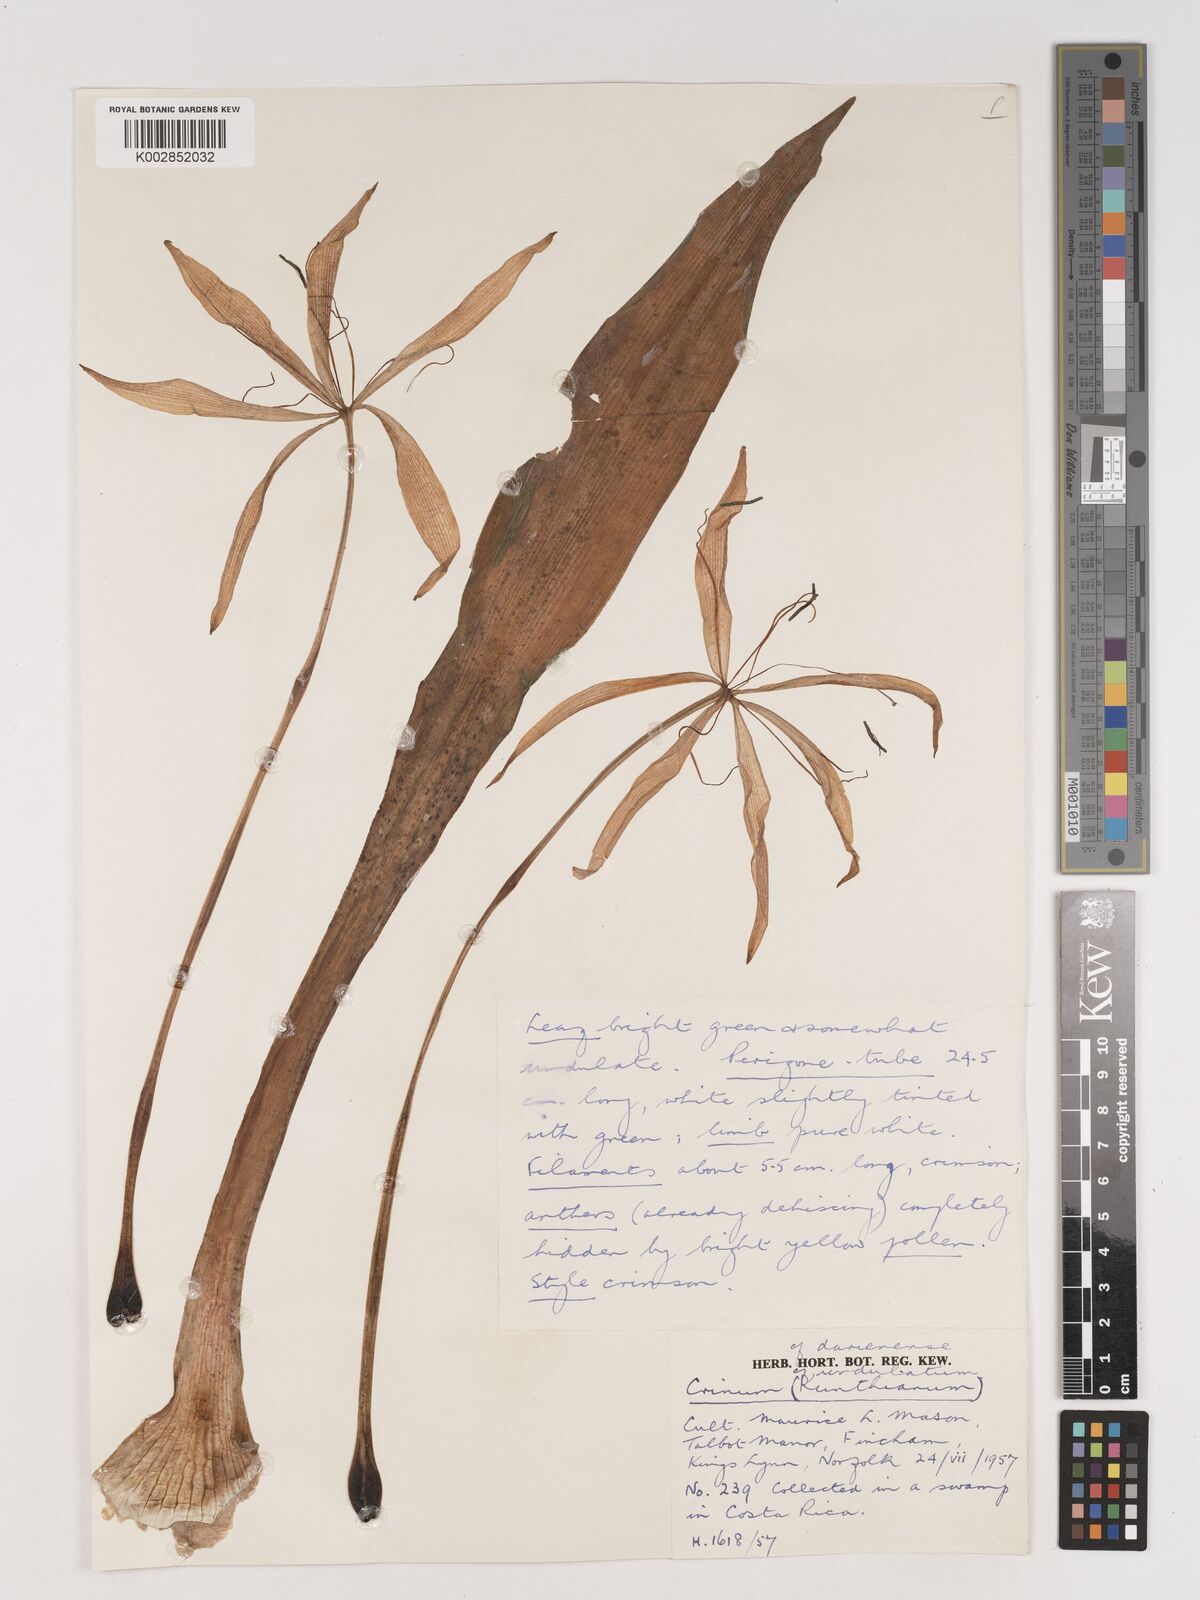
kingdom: Plantae
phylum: Tracheophyta
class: Liliopsida
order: Asparagales
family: Amaryllidaceae
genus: Crinum
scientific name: Crinum undulatum
